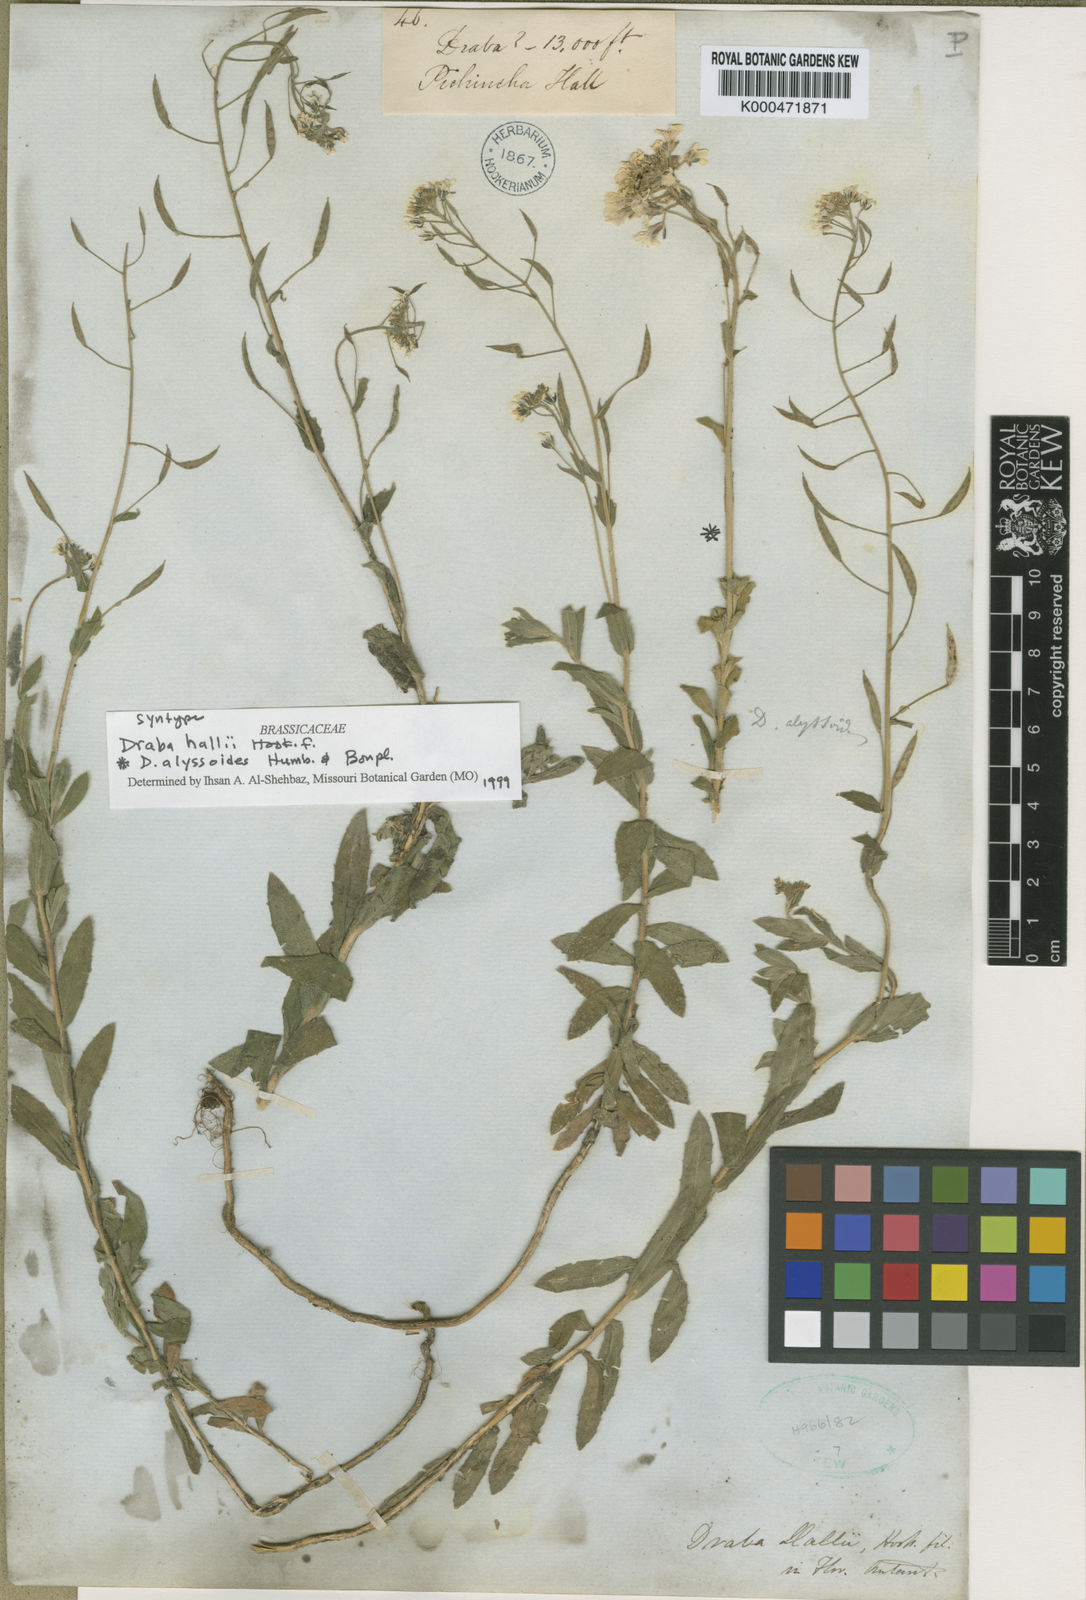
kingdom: Plantae
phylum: Tracheophyta
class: Magnoliopsida
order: Brassicales
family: Brassicaceae
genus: Draba
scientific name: Draba hallii
